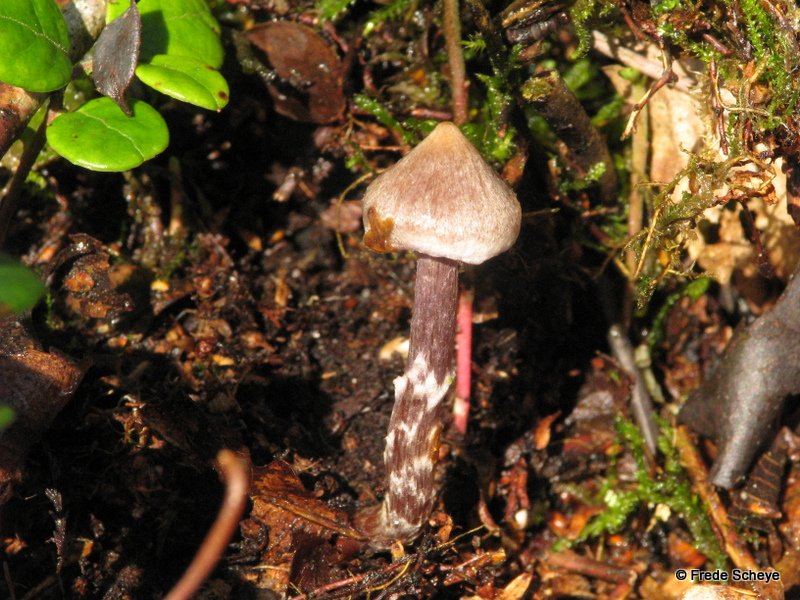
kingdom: Fungi
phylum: Basidiomycota
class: Agaricomycetes
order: Agaricales
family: Cortinariaceae
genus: Cortinarius
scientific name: Cortinarius
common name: pelargonie-slørhat
